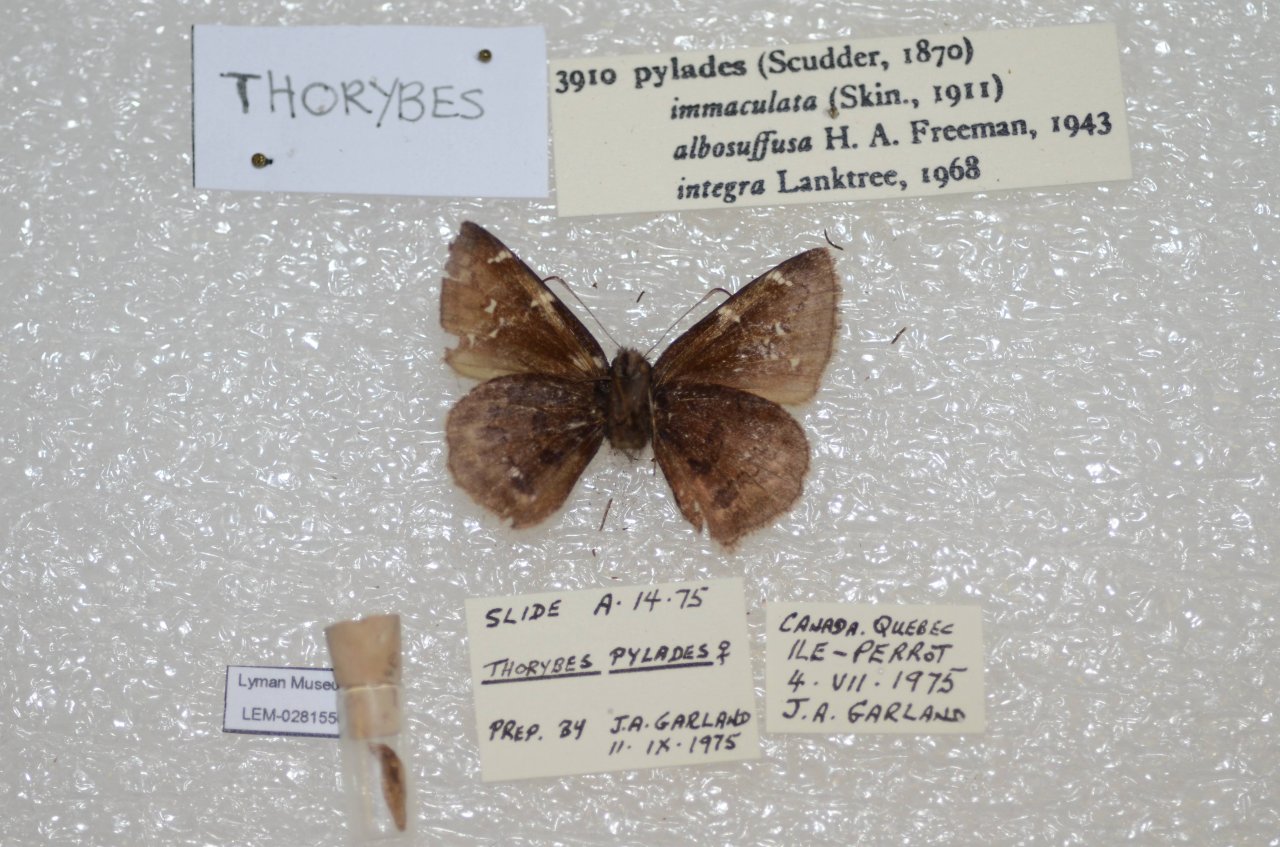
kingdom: Animalia
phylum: Arthropoda
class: Insecta
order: Lepidoptera
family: Hesperiidae
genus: Autochton
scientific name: Autochton
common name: Northern Cloudywing
